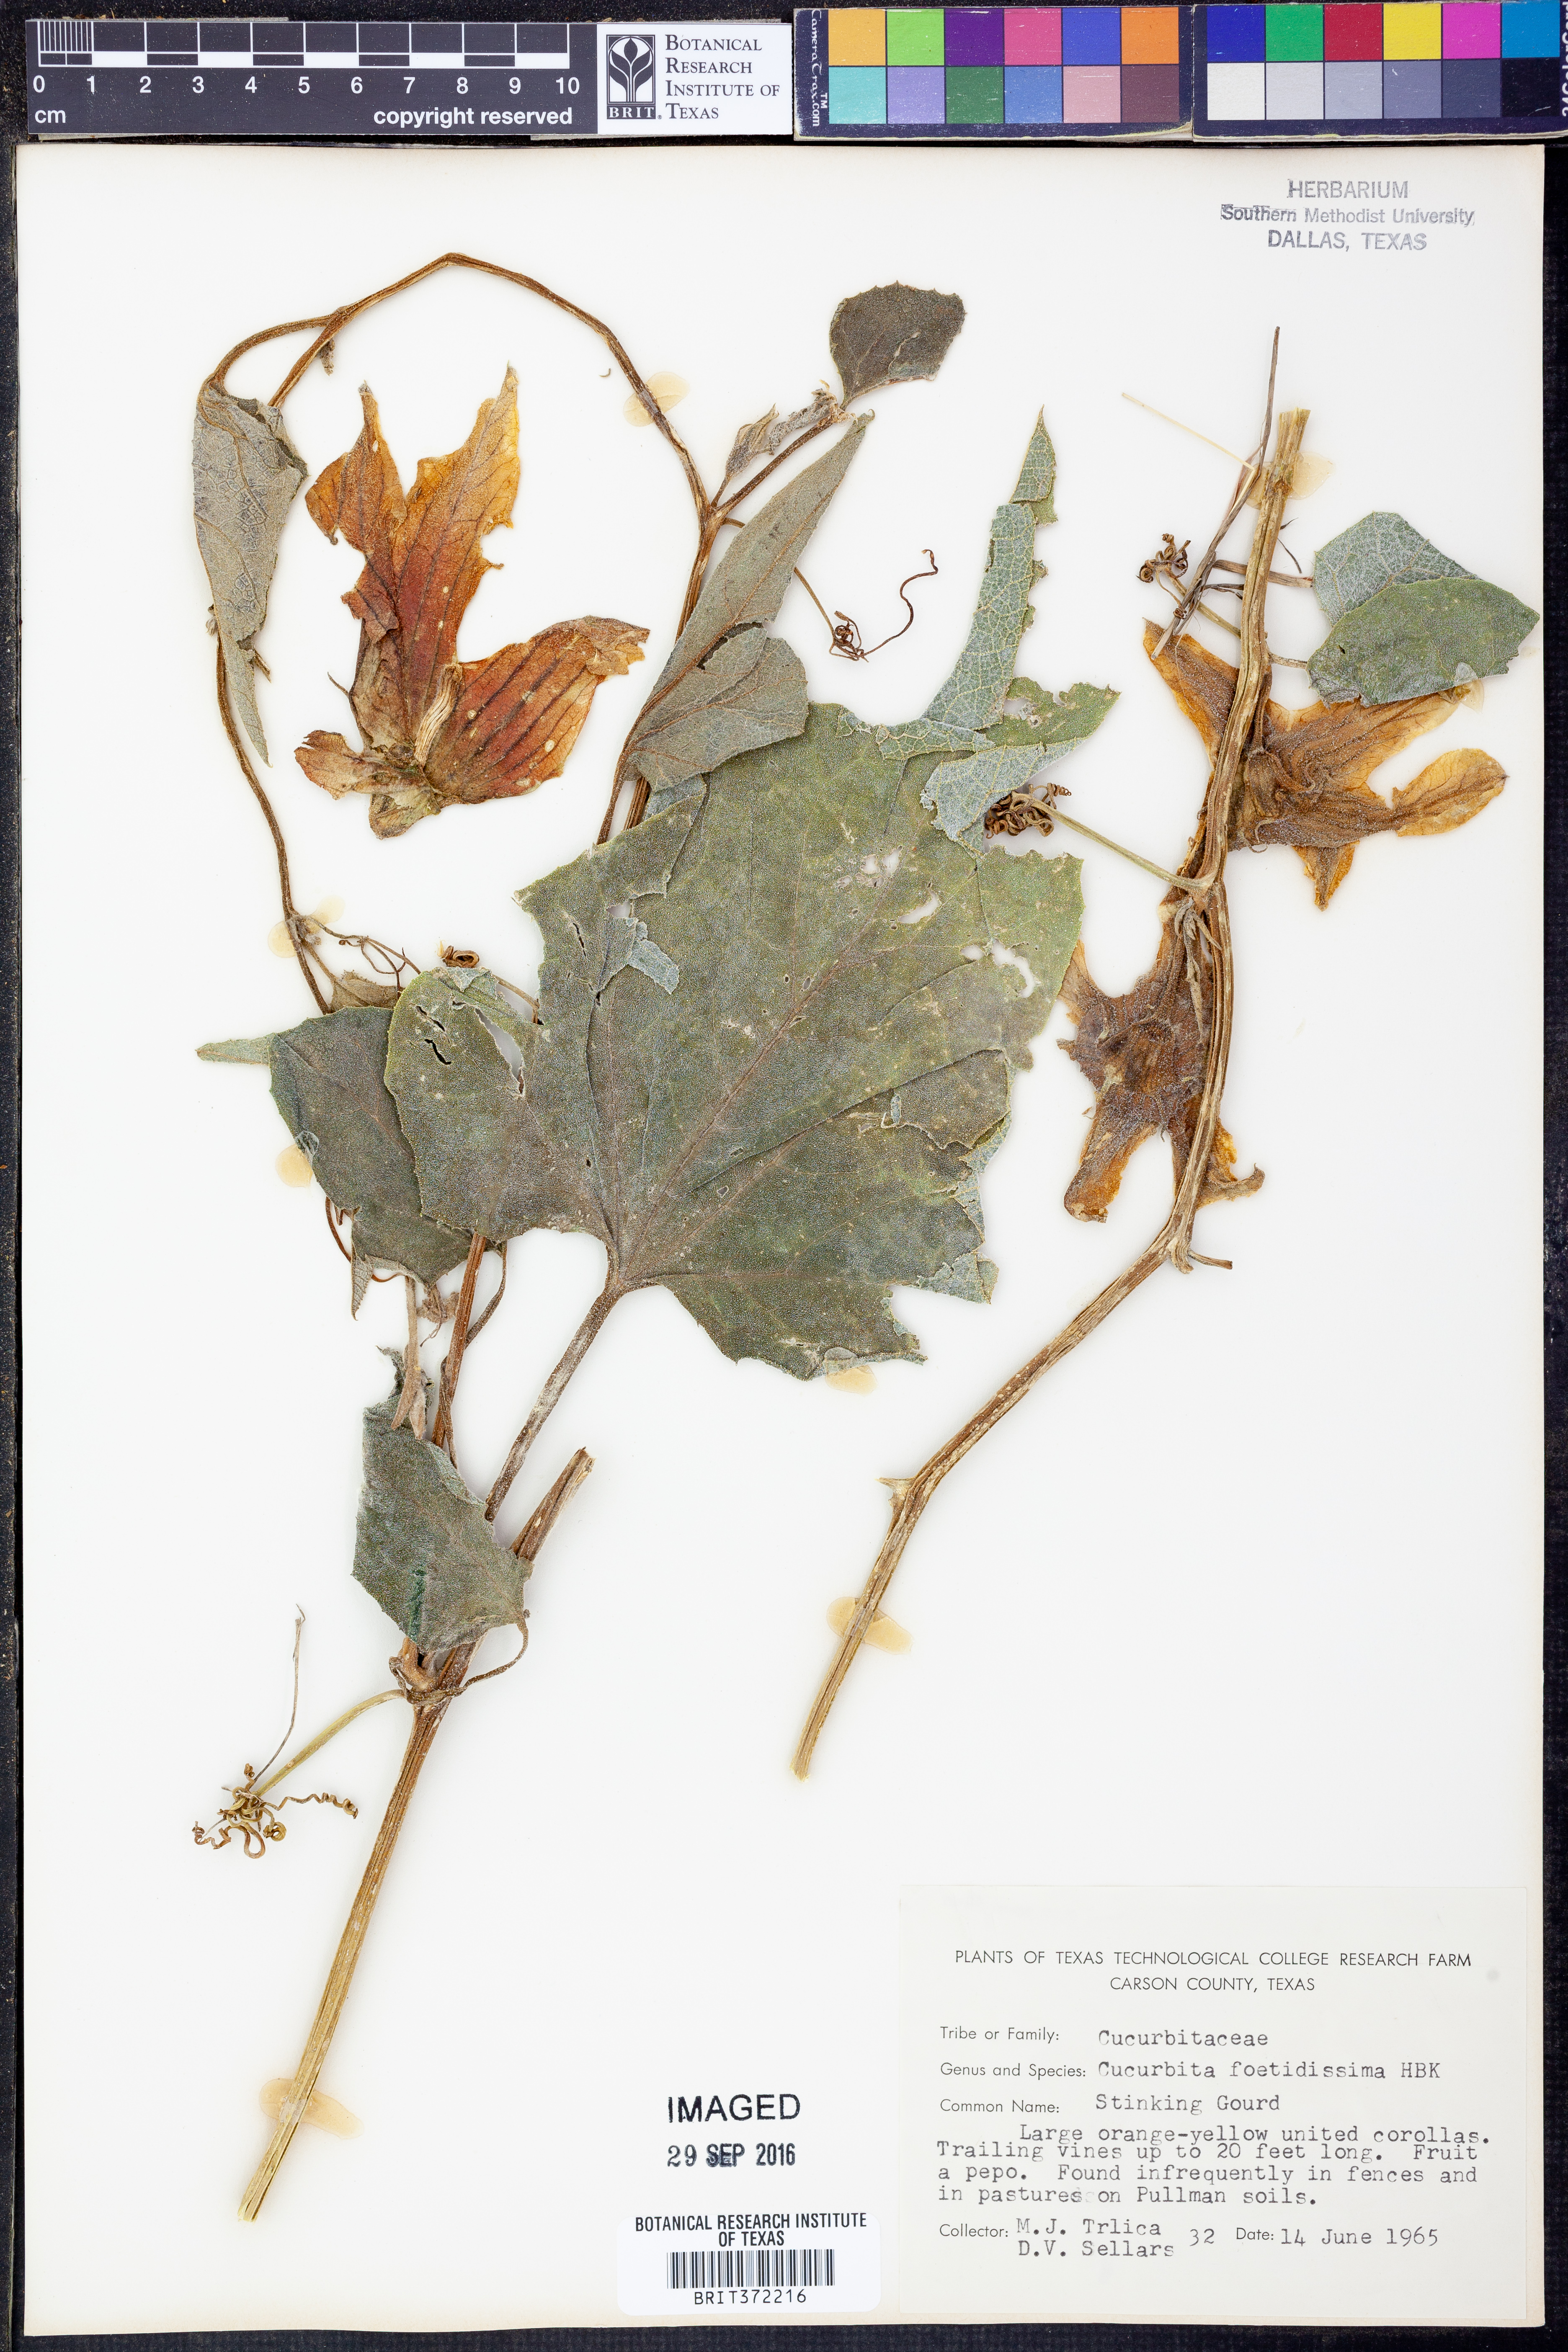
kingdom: Plantae
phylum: Tracheophyta
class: Magnoliopsida
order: Cucurbitales
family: Cucurbitaceae
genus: Cucurbita
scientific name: Cucurbita foetidissima
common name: Buffalo gourd
